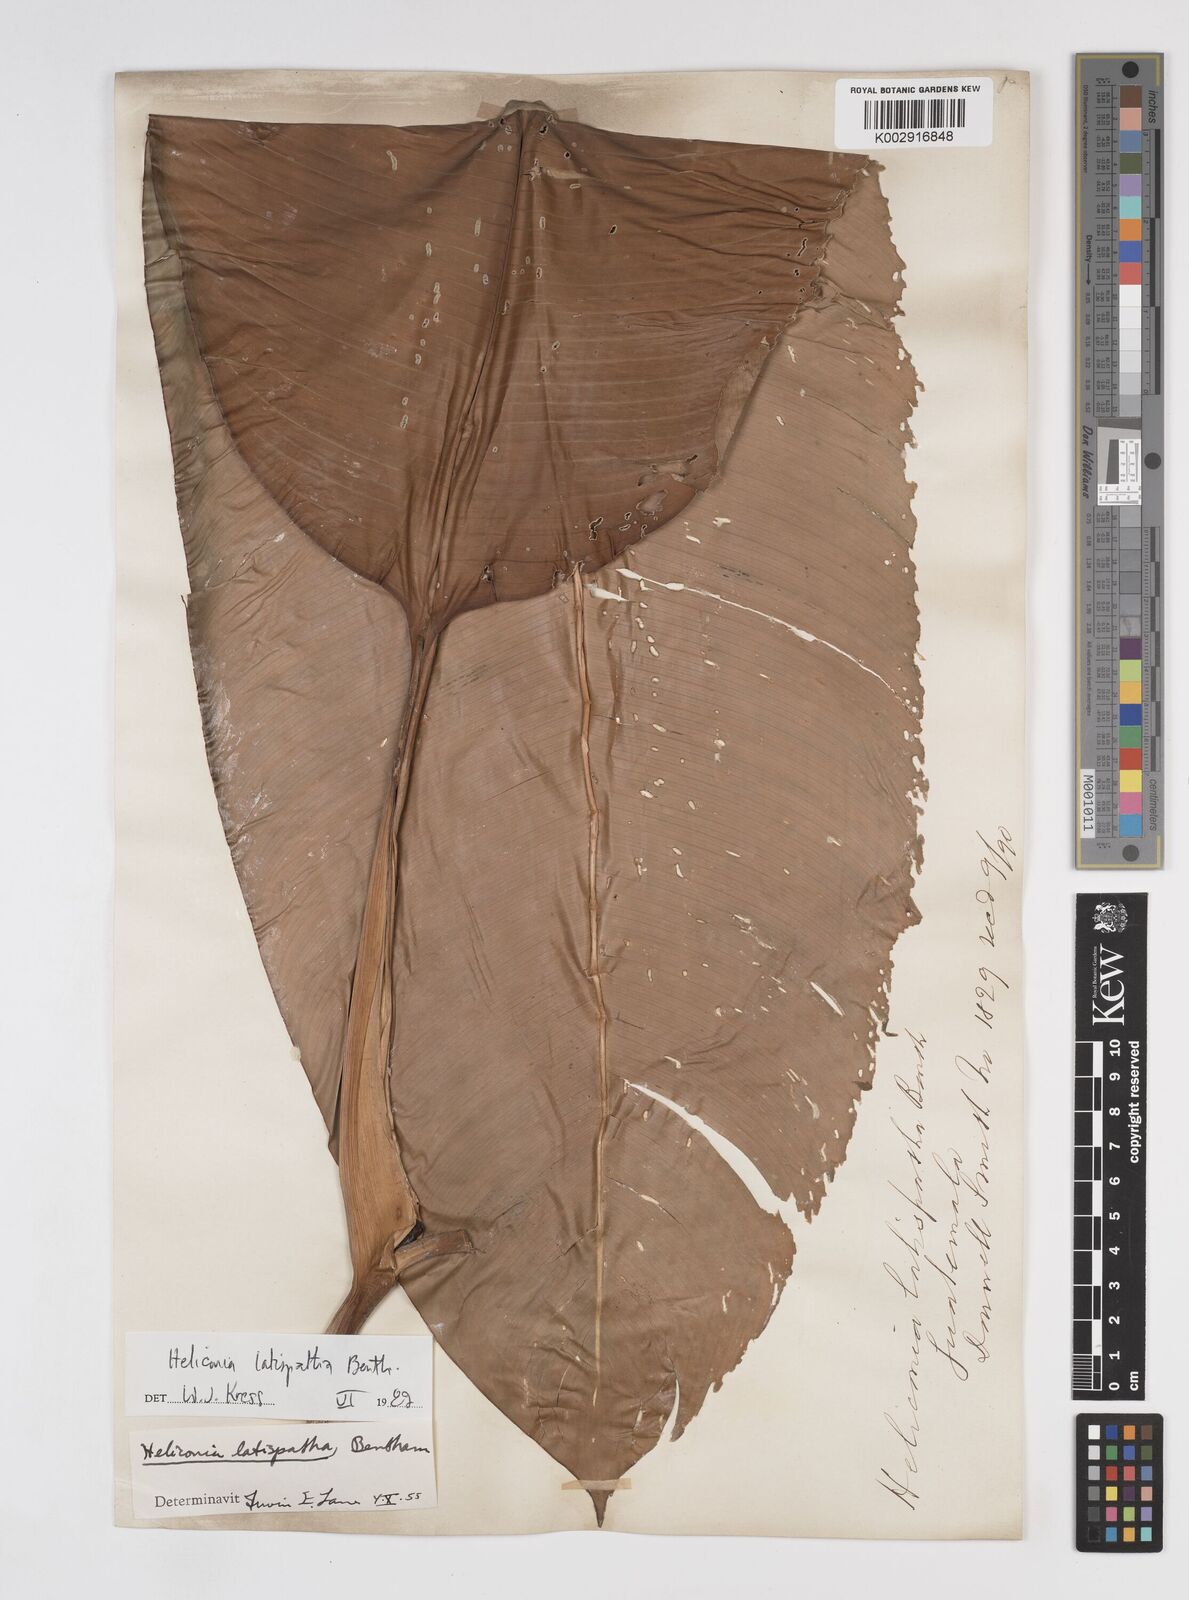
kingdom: Plantae
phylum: Tracheophyta
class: Liliopsida
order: Zingiberales
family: Heliconiaceae
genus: Heliconia
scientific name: Heliconia latispatha
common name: Expanded lobsterclaw
